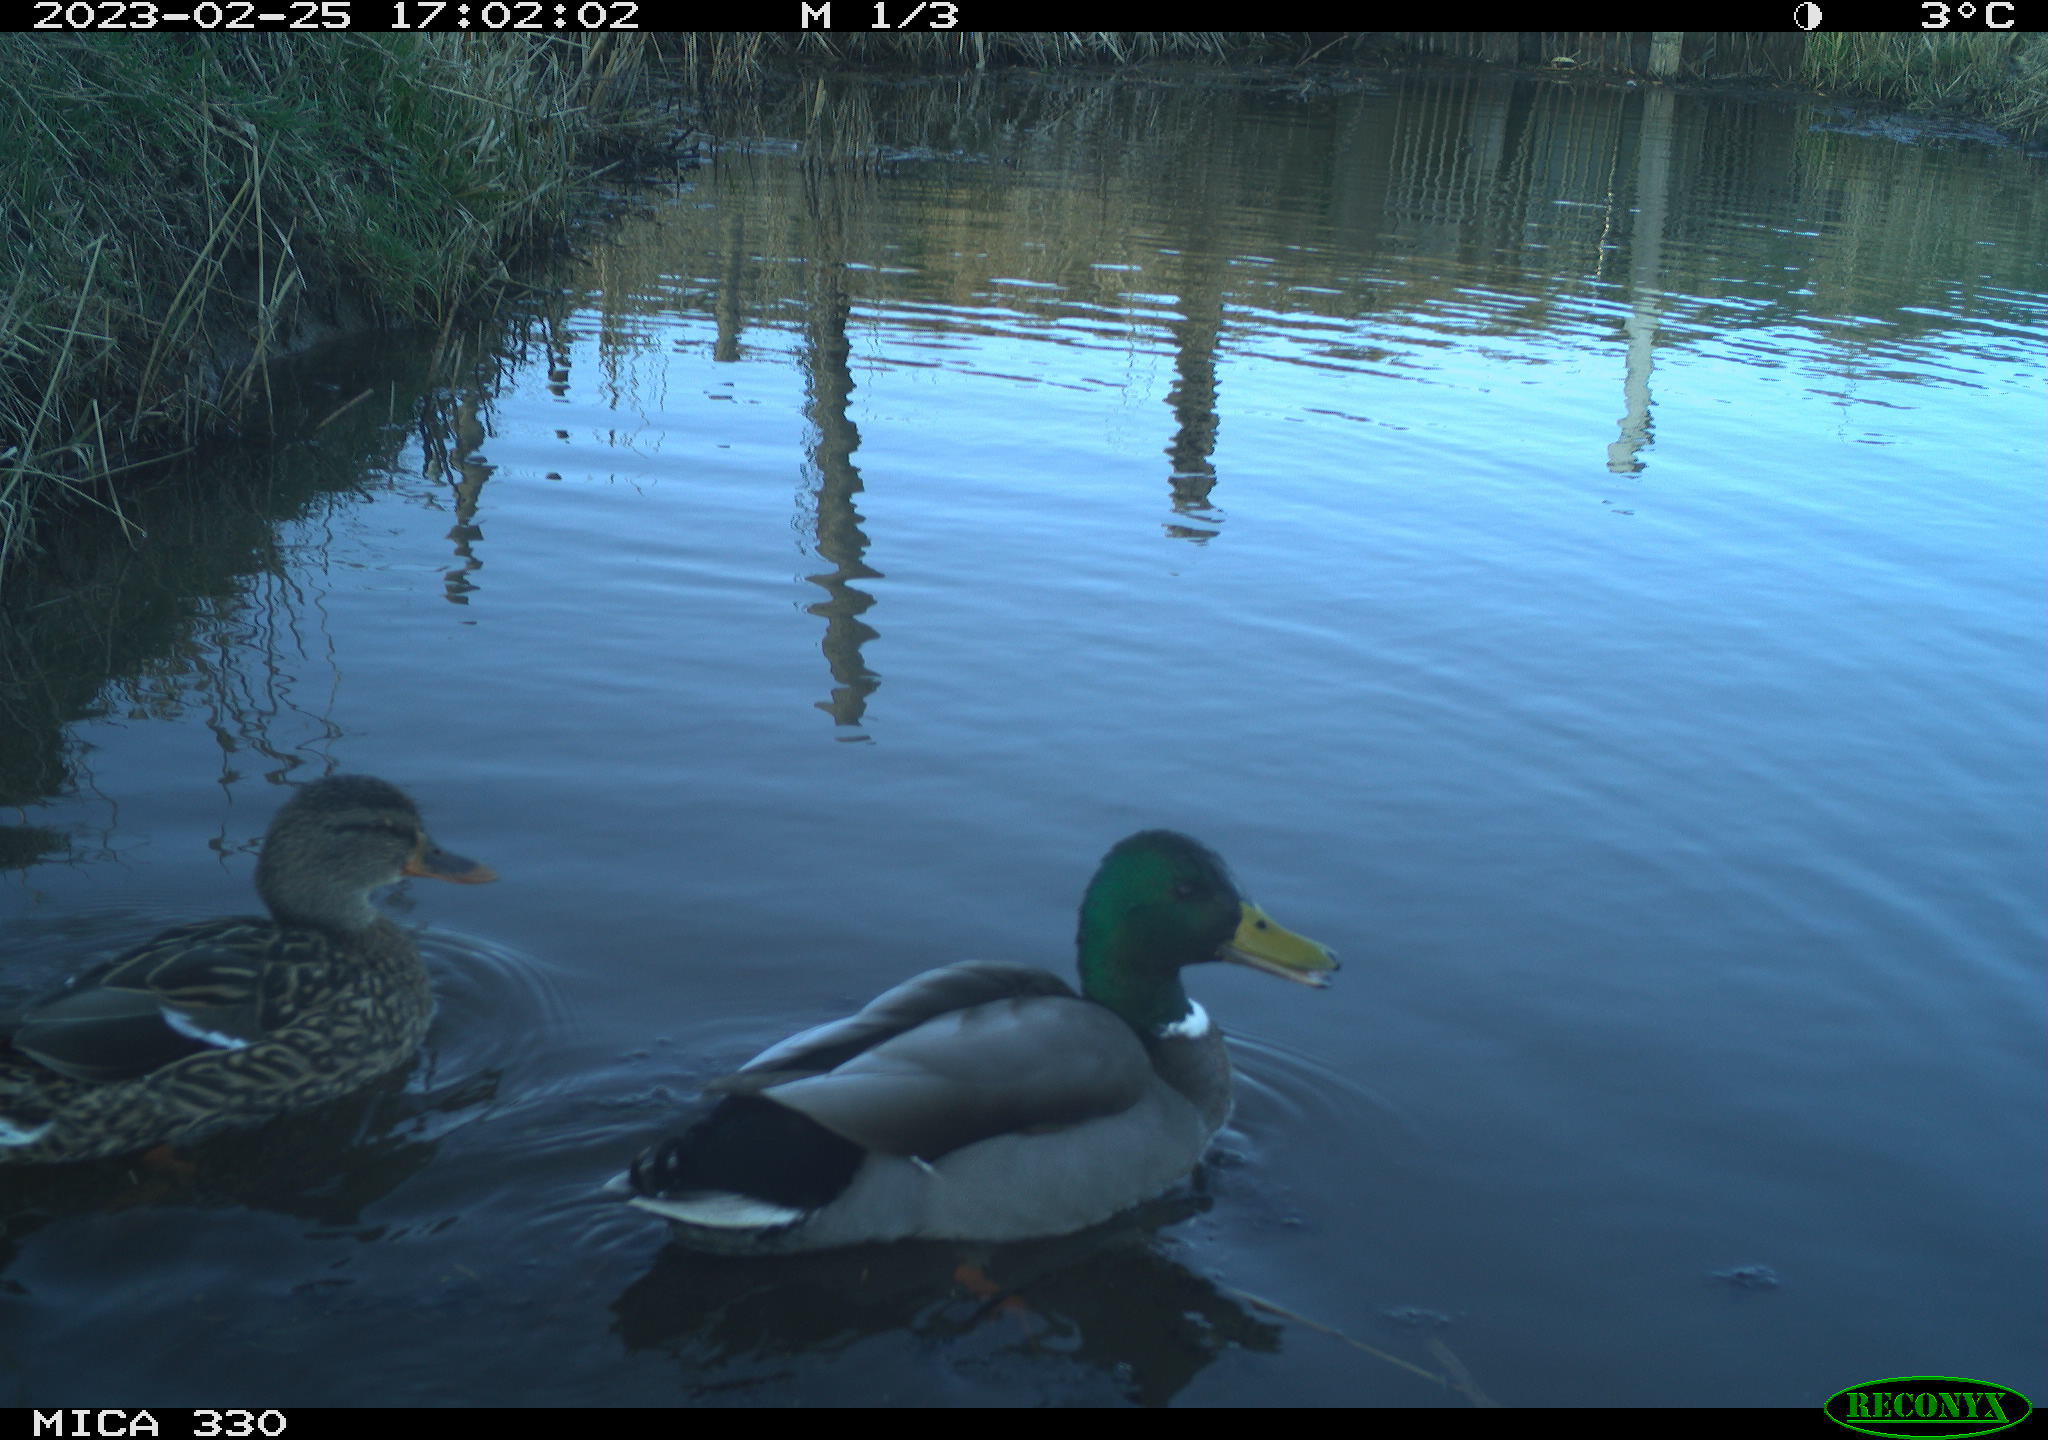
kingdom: Animalia
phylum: Chordata
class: Aves
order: Anseriformes
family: Anatidae
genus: Anas
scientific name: Anas
